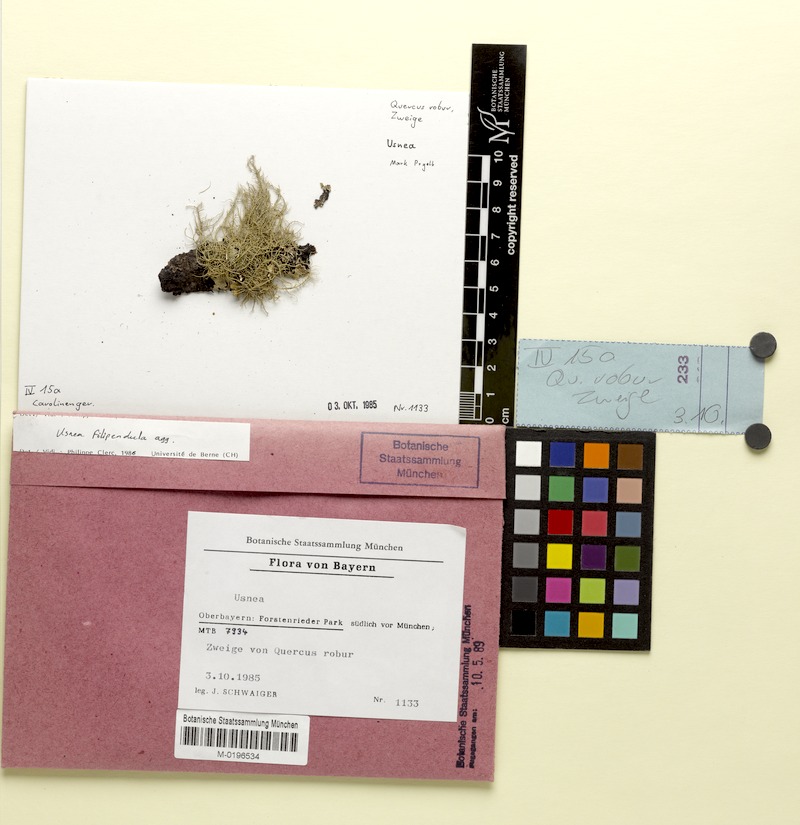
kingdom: Fungi
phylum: Ascomycota
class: Lecanoromycetes
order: Lecanorales
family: Parmeliaceae
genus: Usnea
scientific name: Usnea filipendula
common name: Fishbone beard lichen
